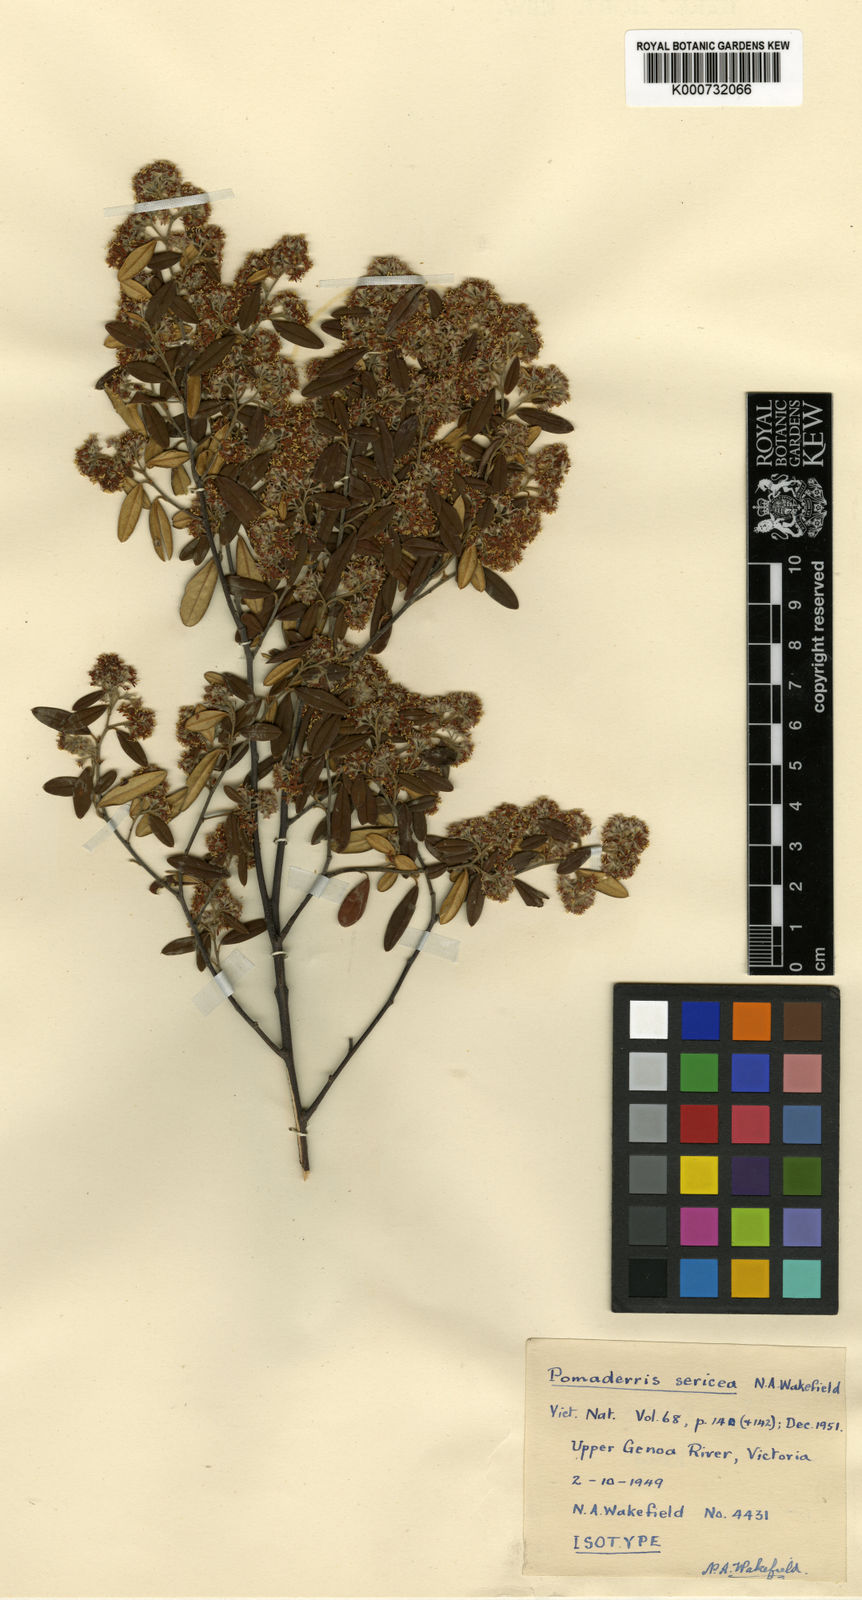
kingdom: Plantae
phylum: Tracheophyta
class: Magnoliopsida
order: Rosales
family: Rhamnaceae
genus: Pomaderris
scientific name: Pomaderris sericea
